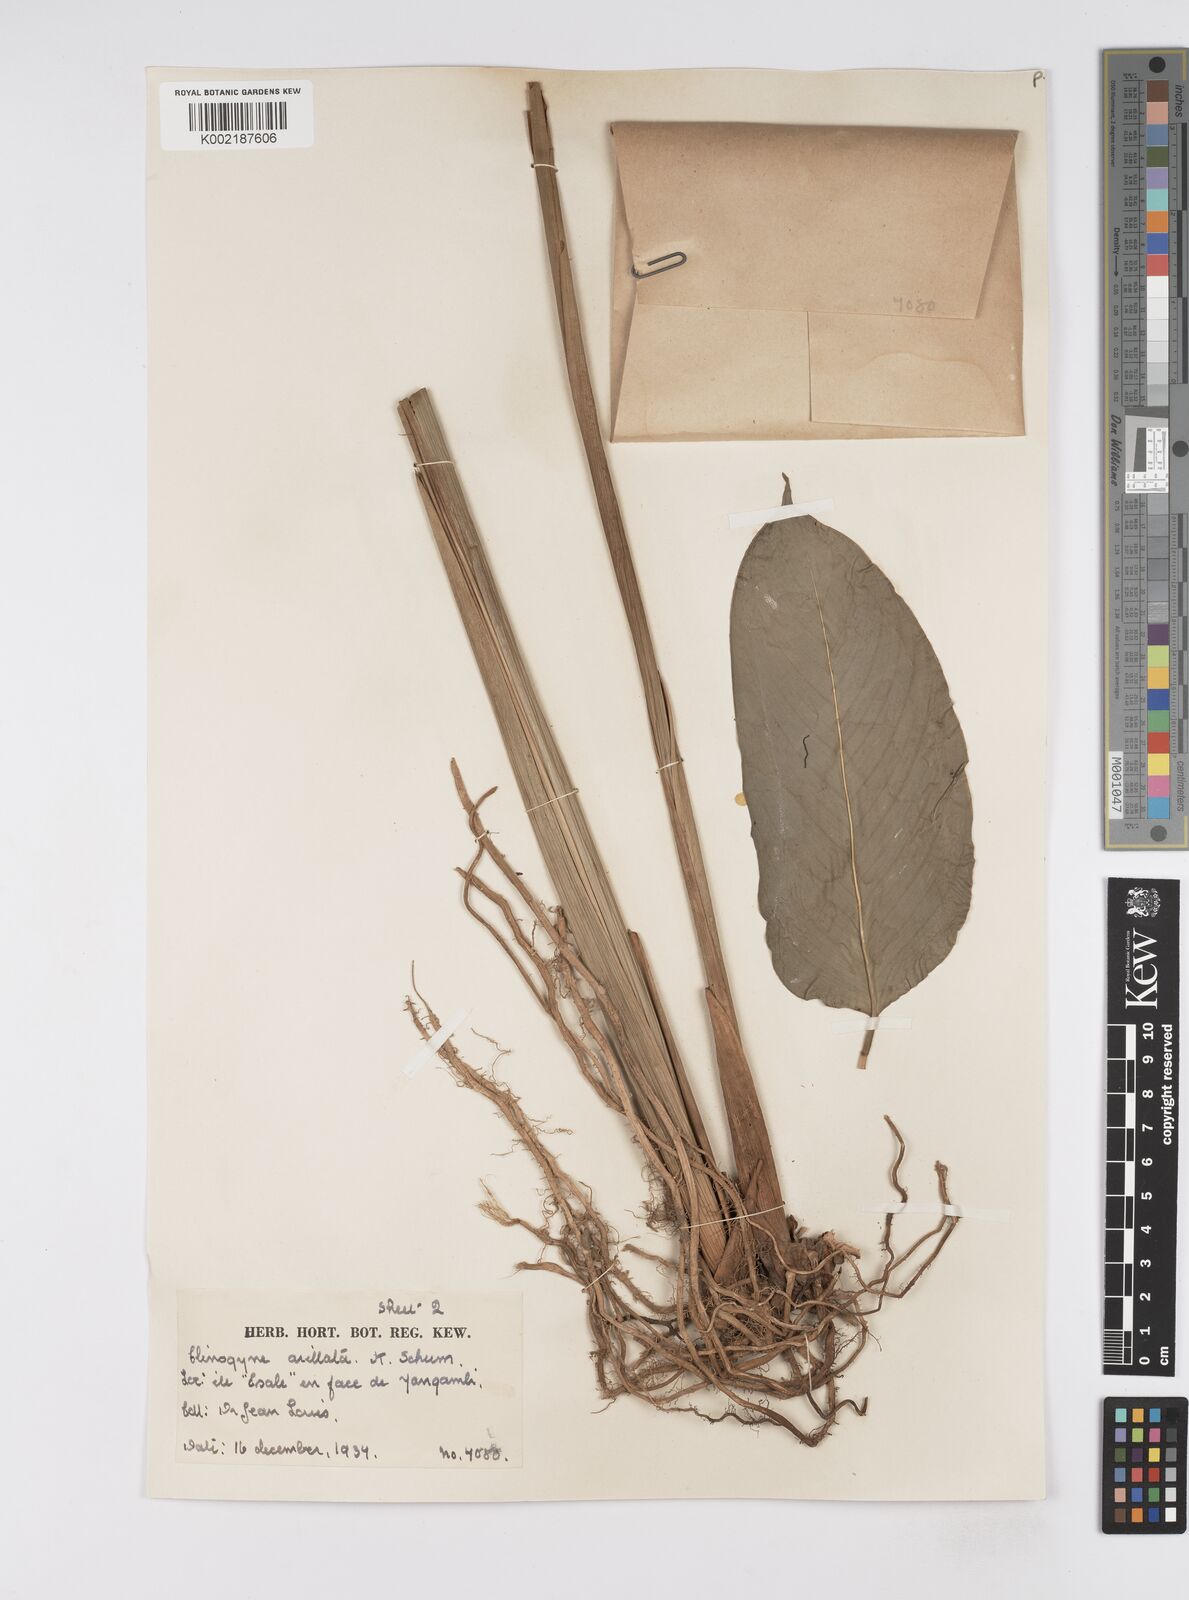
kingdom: Plantae
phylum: Tracheophyta
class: Liliopsida
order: Zingiberales
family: Marantaceae
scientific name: Marantaceae
